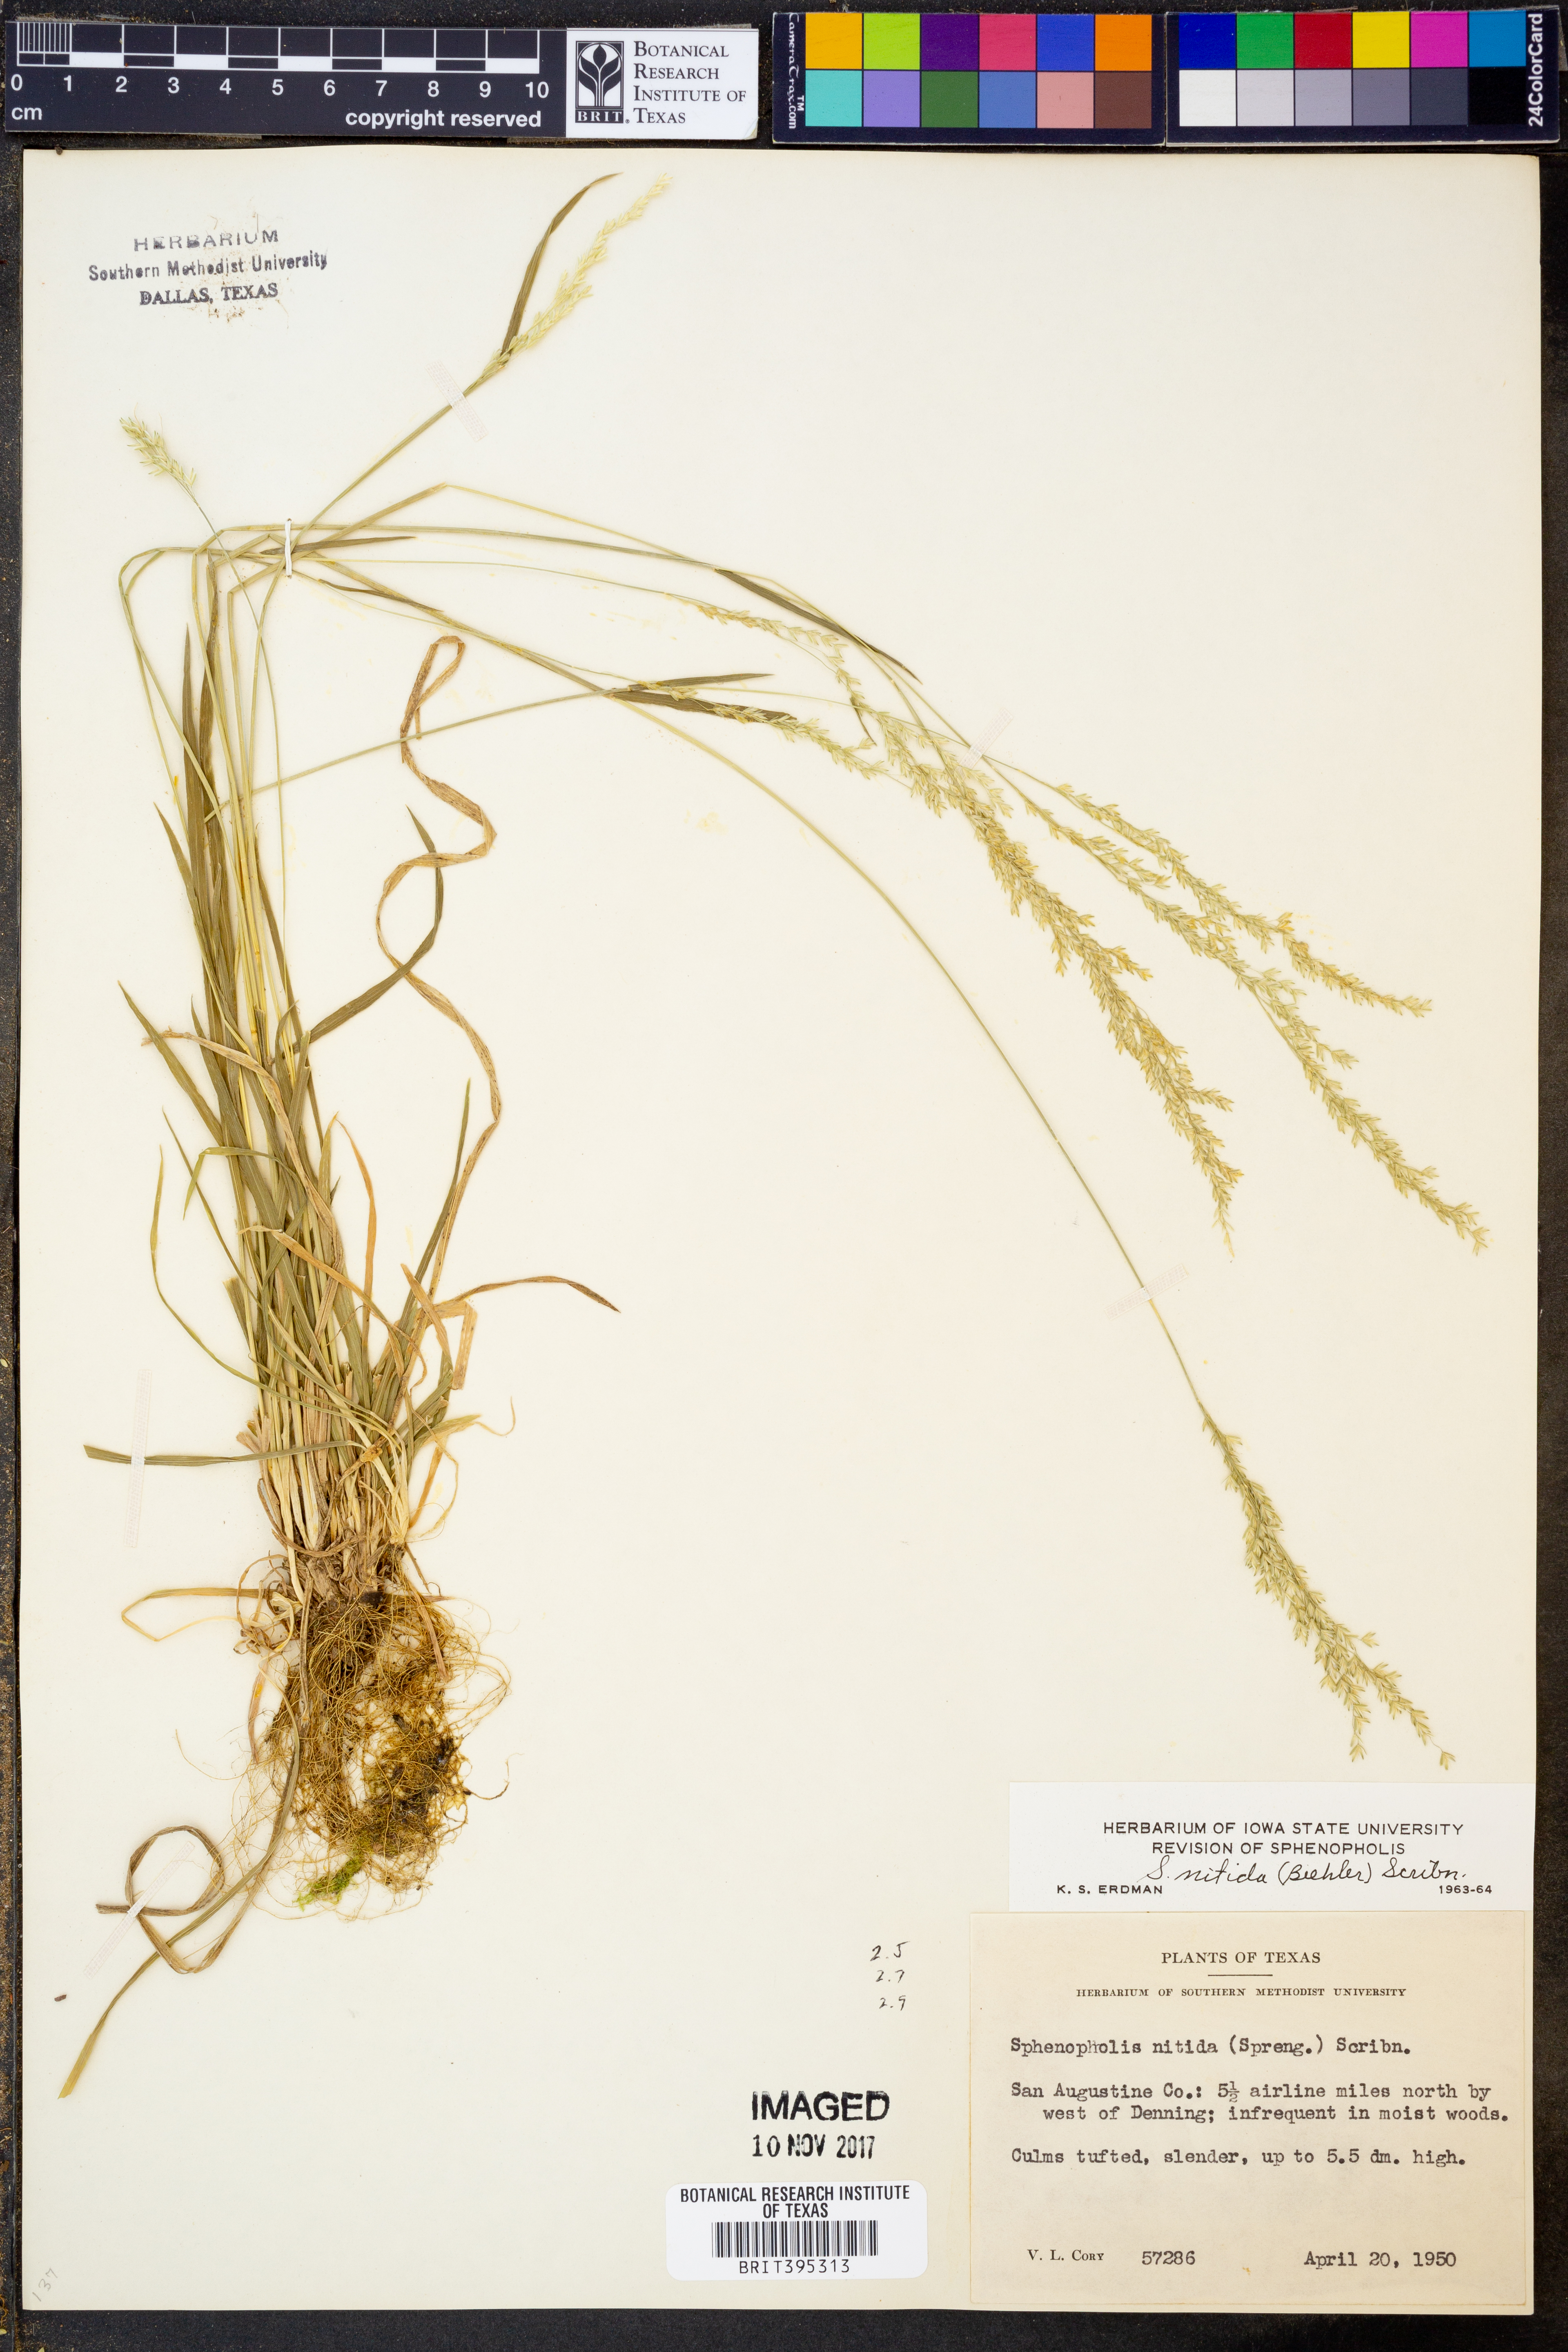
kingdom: Plantae
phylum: Tracheophyta
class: Liliopsida
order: Poales
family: Poaceae
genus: Sphenopholis
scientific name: Sphenopholis nitida
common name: Shiny wedgegrass
